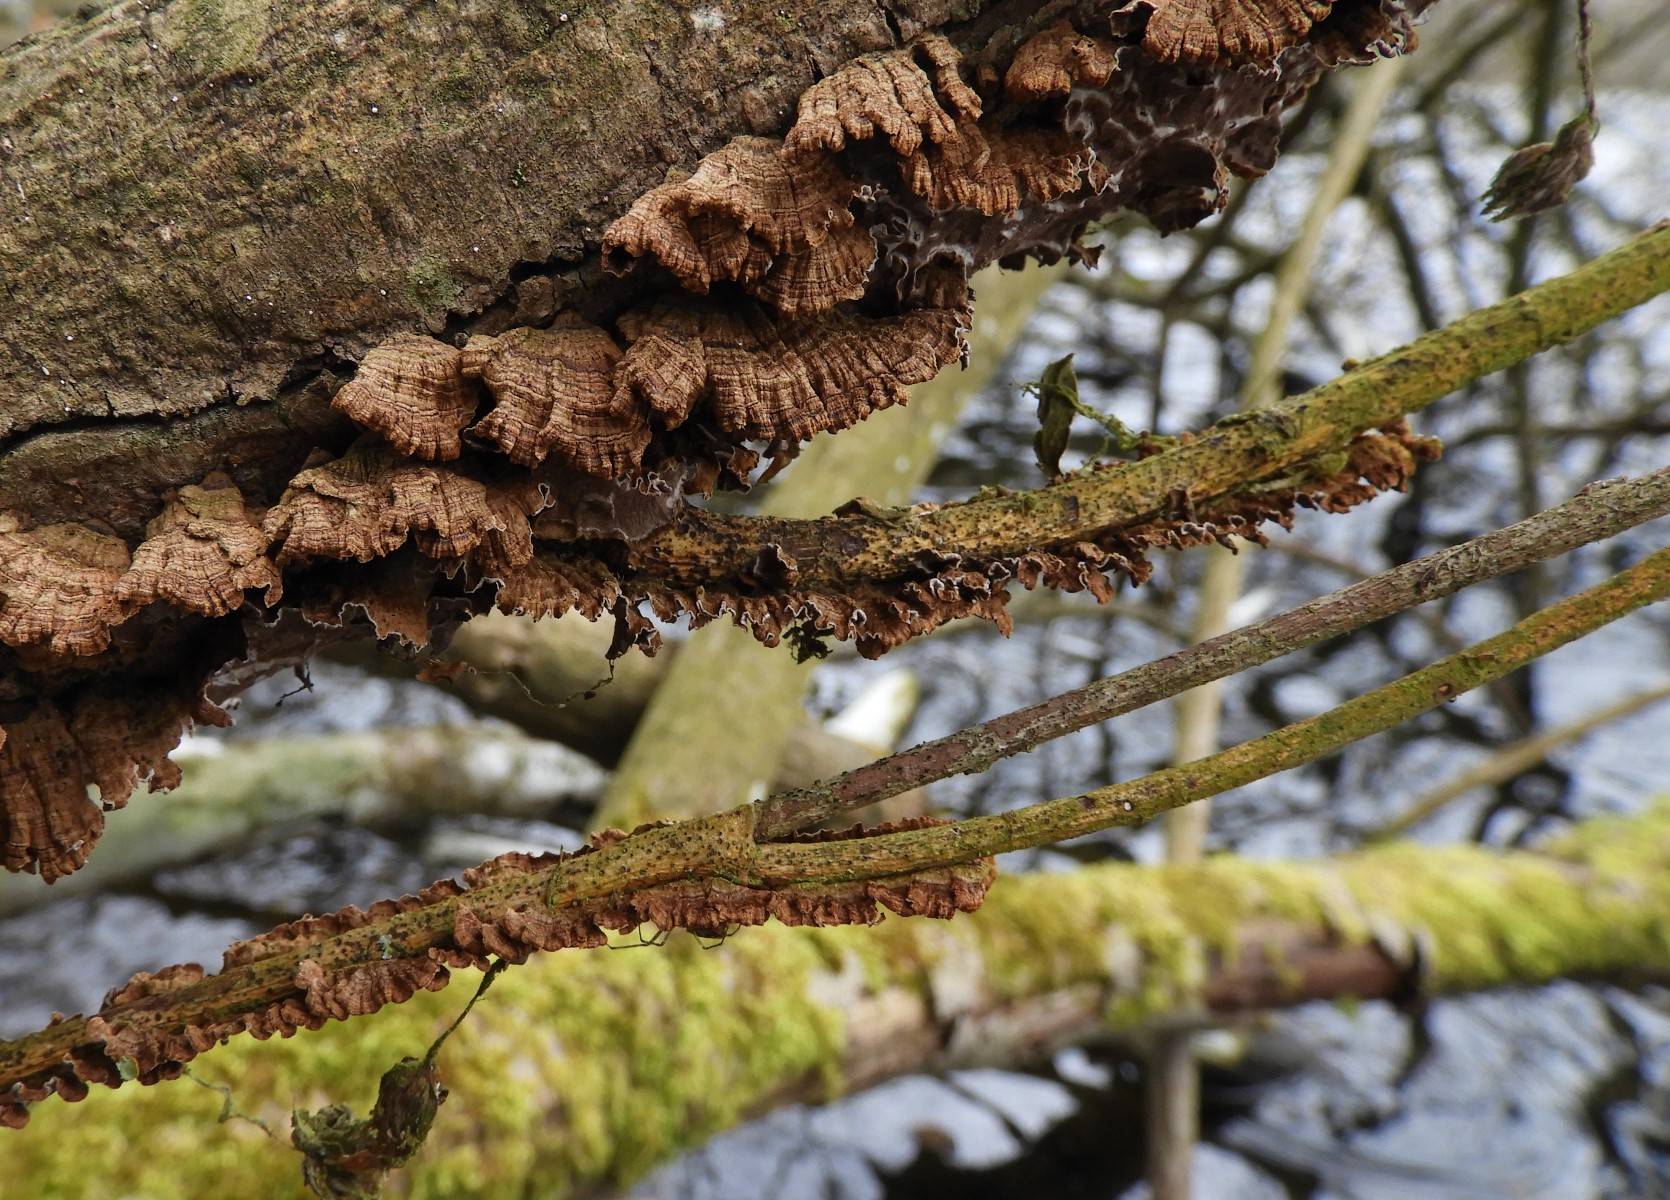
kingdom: Fungi
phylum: Basidiomycota
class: Agaricomycetes
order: Hymenochaetales
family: Hymenochaetaceae
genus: Hydnoporia
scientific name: Hydnoporia tabacina
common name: tobaksbrun ruslædersvamp
